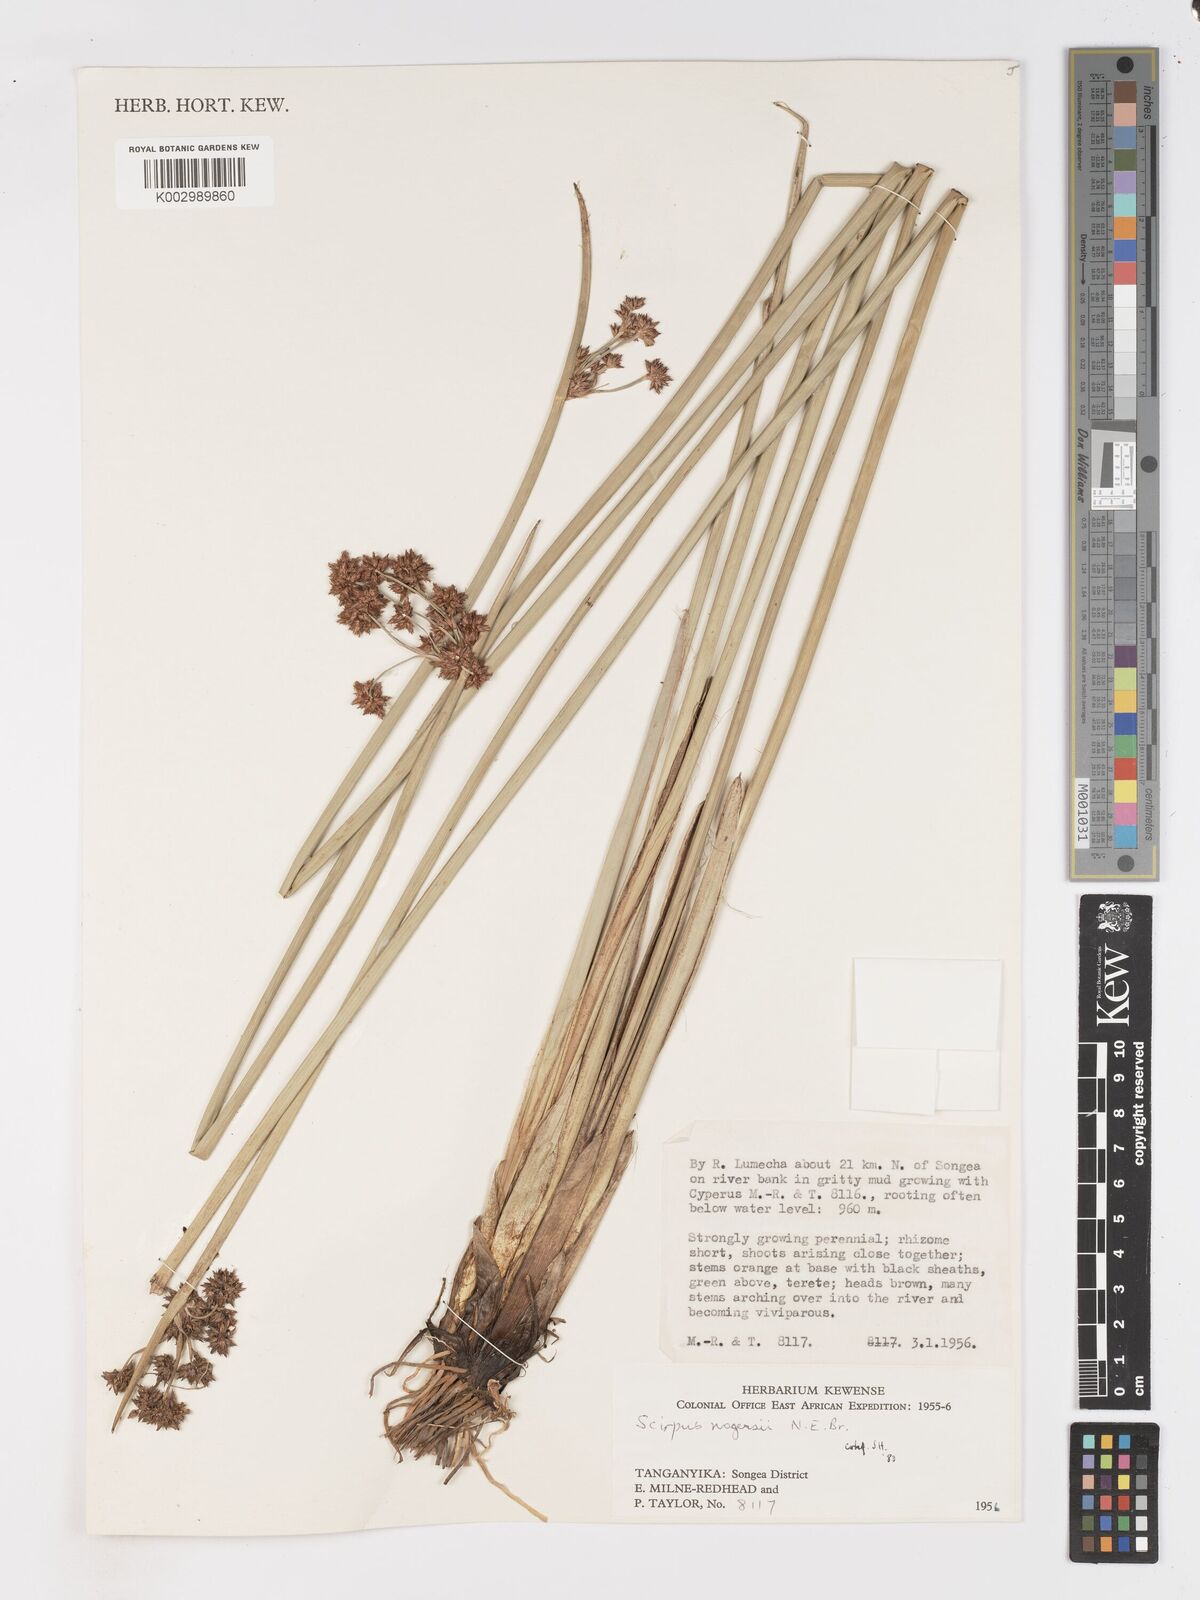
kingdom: Plantae
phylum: Tracheophyta
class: Liliopsida
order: Poales
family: Cyperaceae
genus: Schoenoplectiella
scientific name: Schoenoplectiella rogersii
